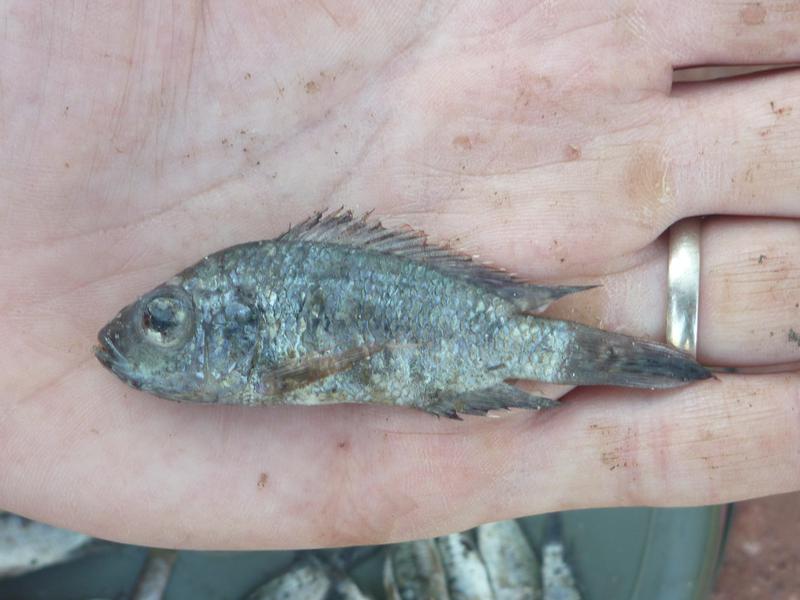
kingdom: Animalia
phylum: Chordata
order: Perciformes
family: Cichlidae
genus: Oreochromis
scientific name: Oreochromis korogwe
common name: Korogwe tilapia
